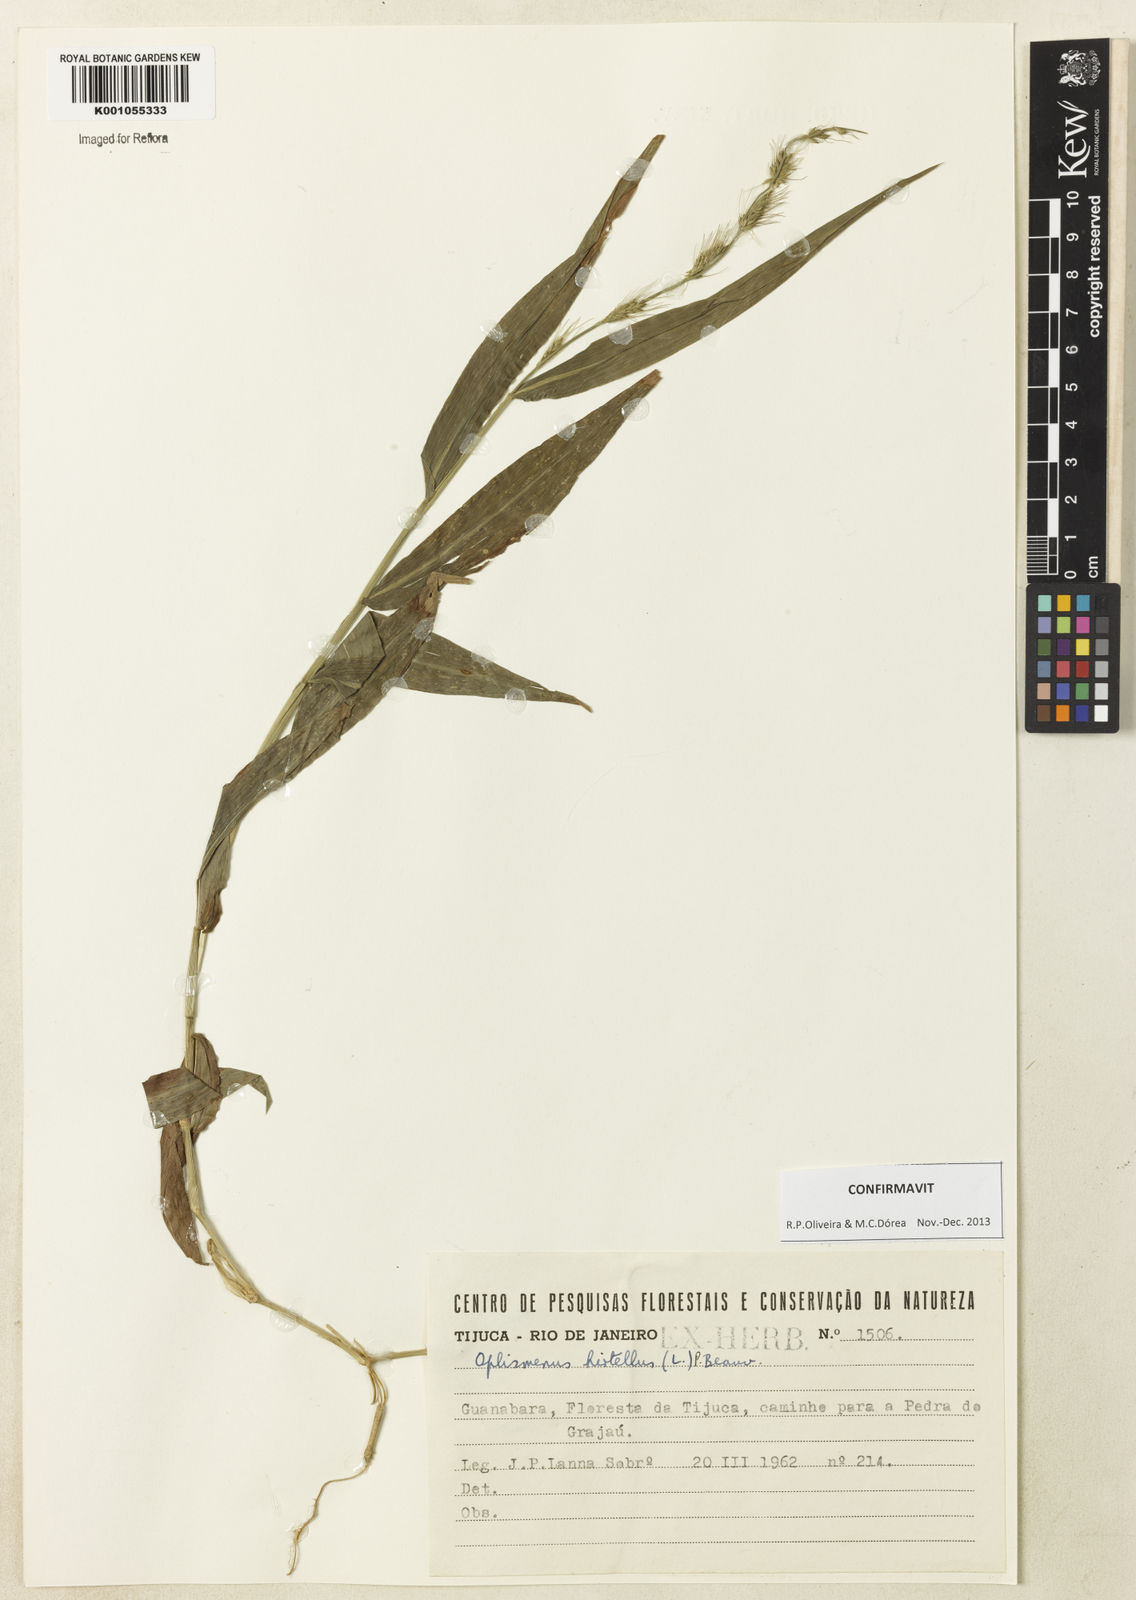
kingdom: Plantae
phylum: Tracheophyta
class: Liliopsida
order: Poales
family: Poaceae
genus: Oplismenus
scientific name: Oplismenus hirtellus
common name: Basketgrass
